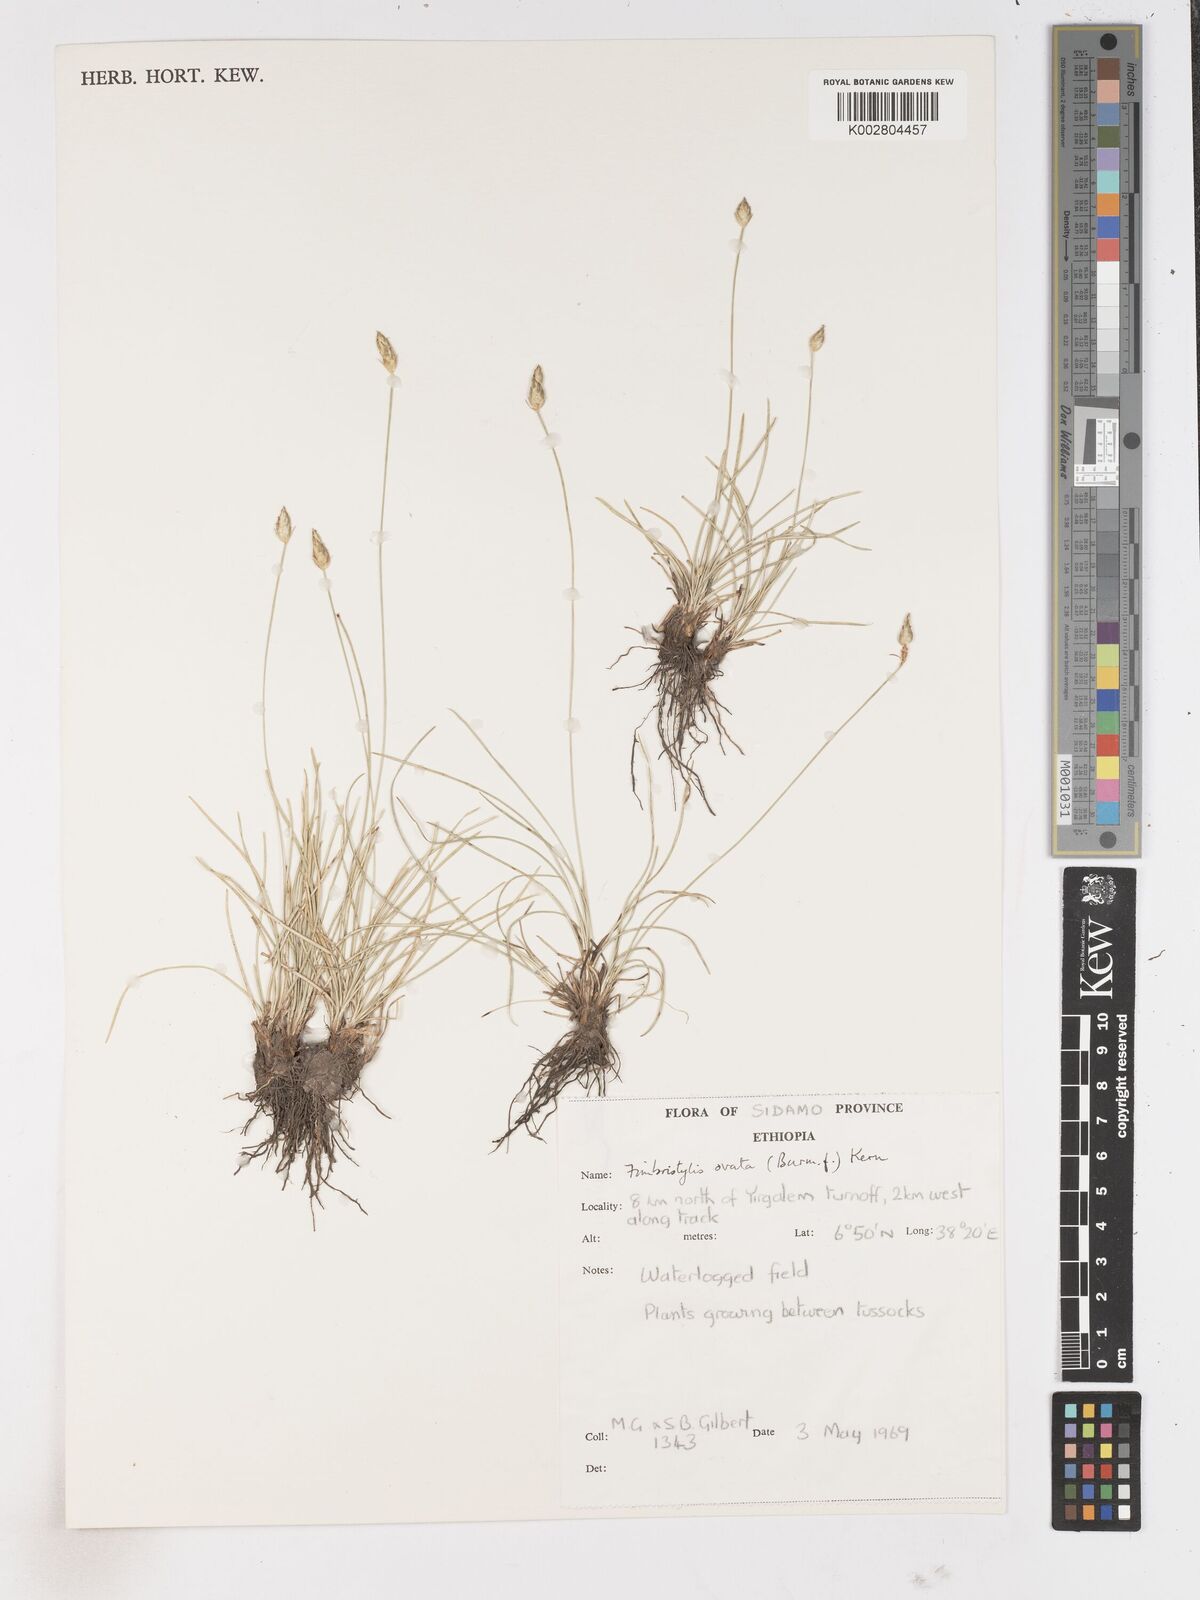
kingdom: Plantae
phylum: Tracheophyta
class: Liliopsida
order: Poales
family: Cyperaceae
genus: Abildgaardia
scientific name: Abildgaardia ovata
